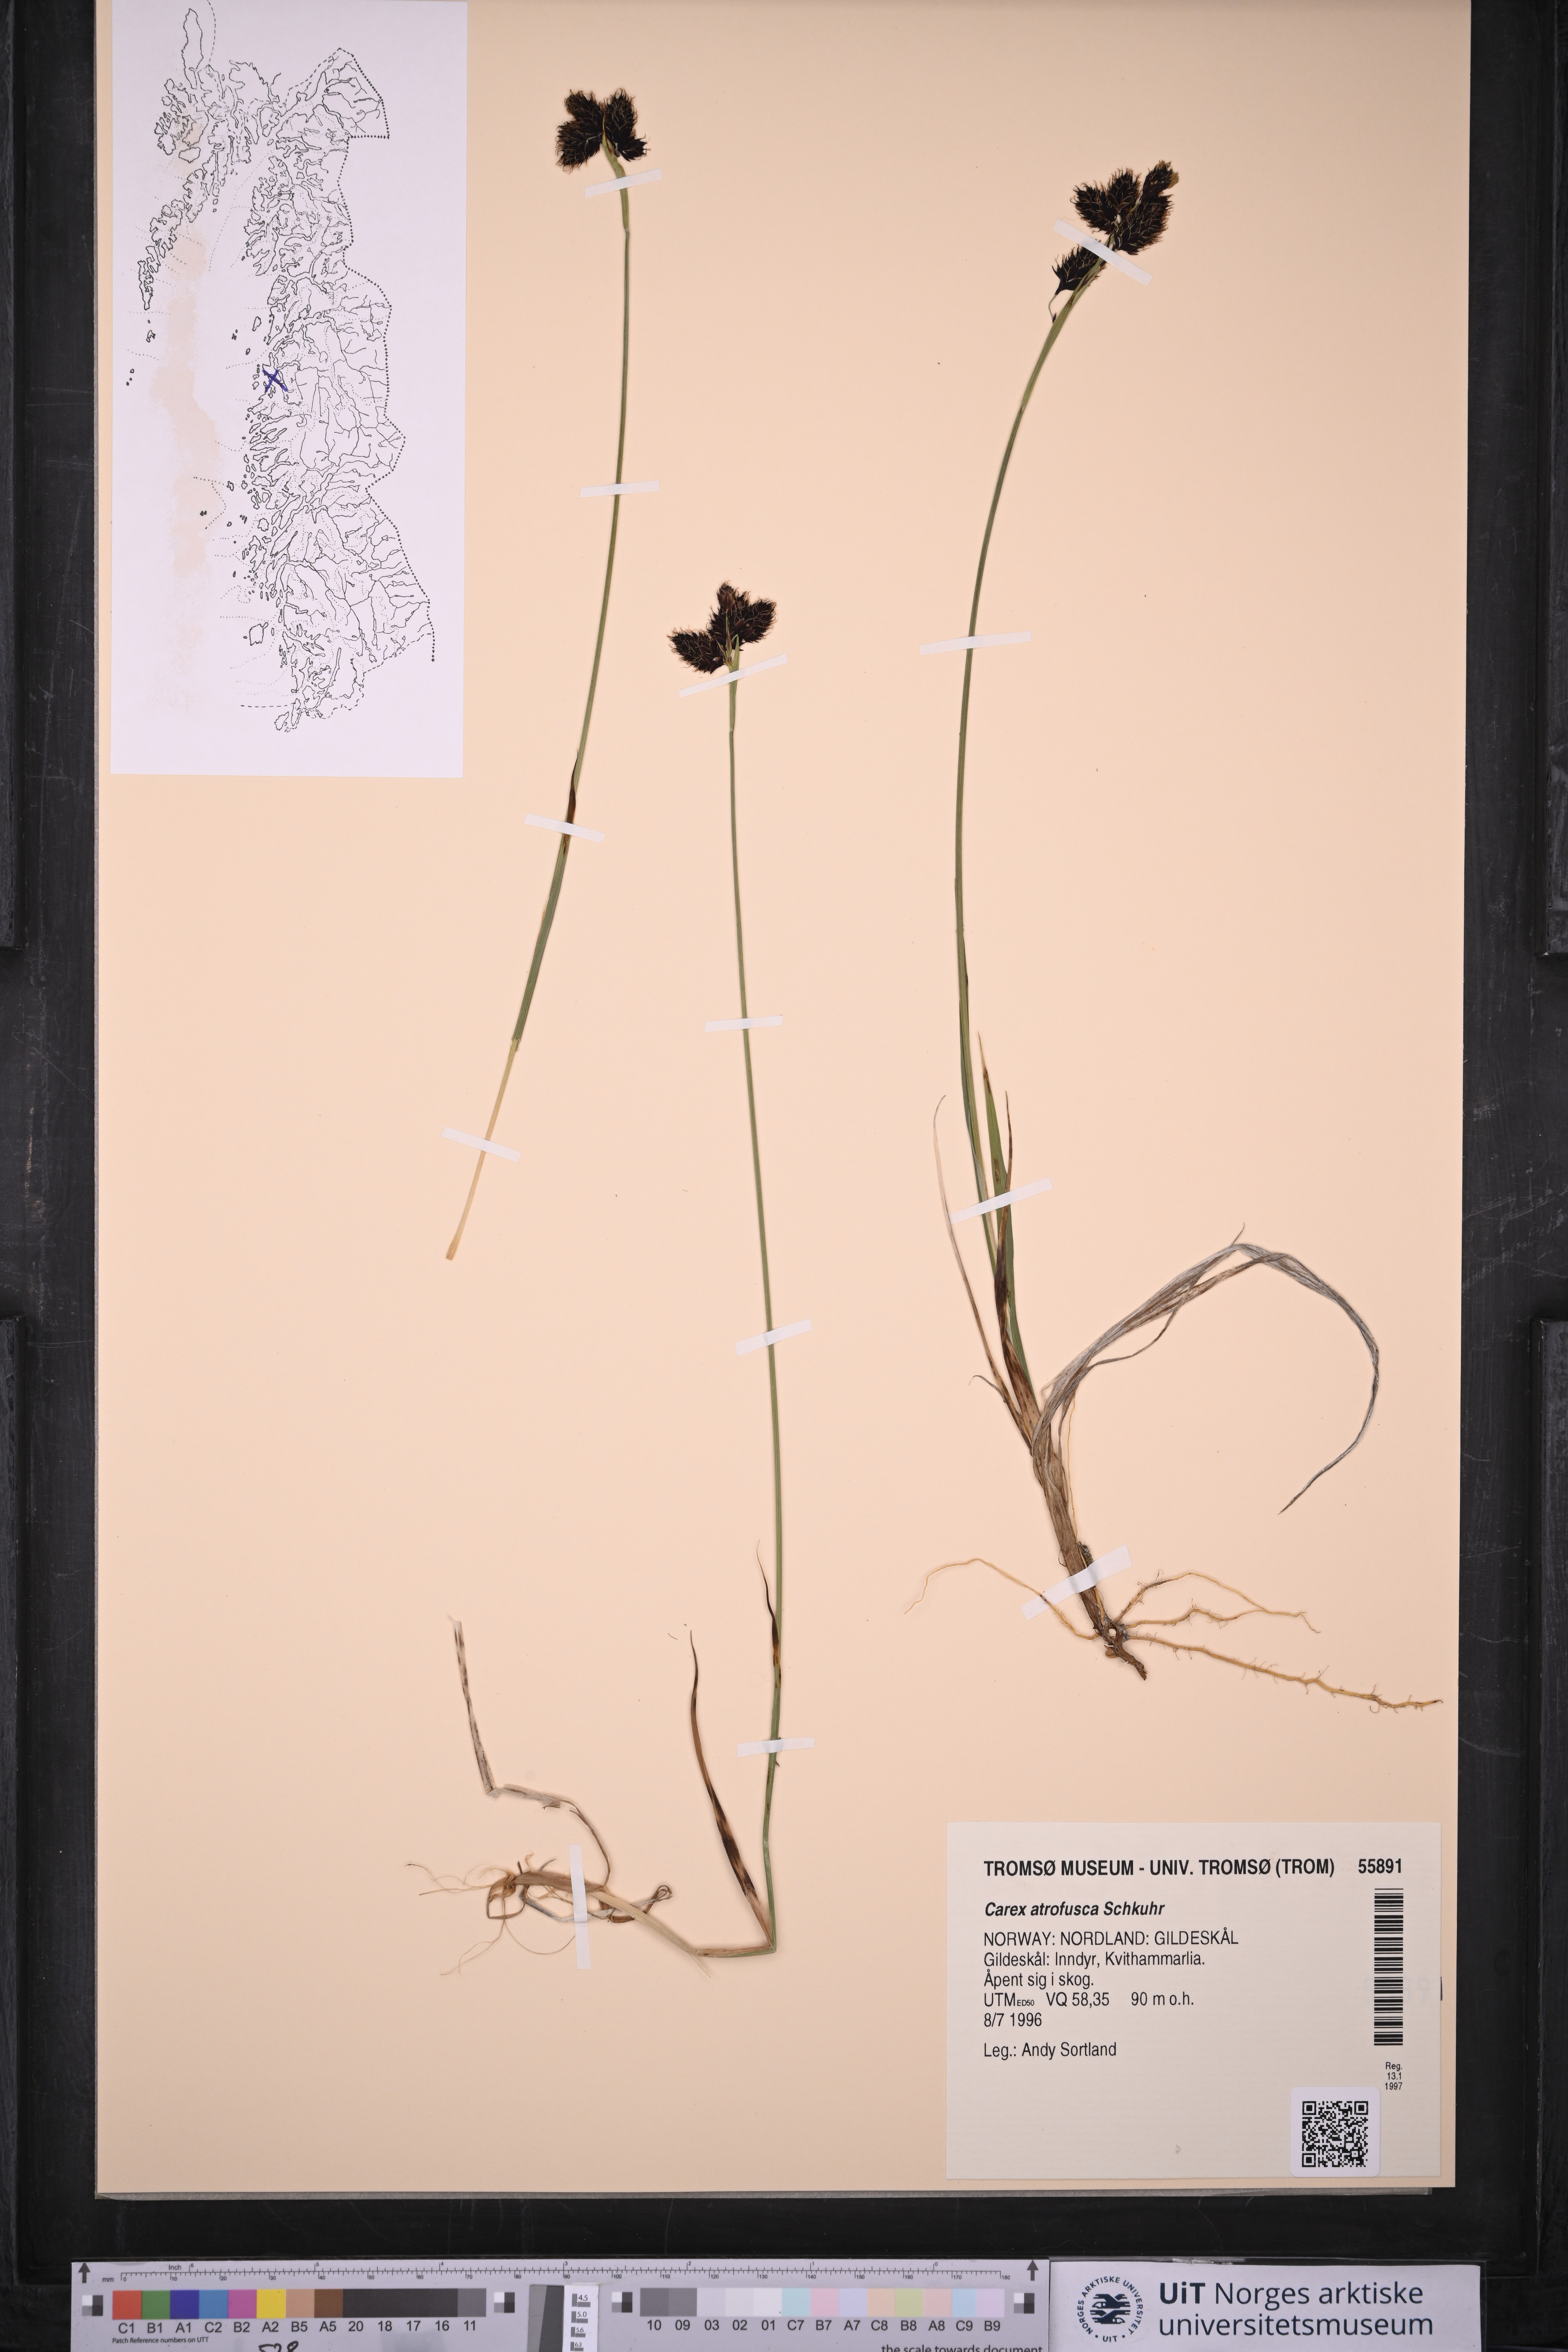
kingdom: Plantae
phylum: Tracheophyta
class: Liliopsida
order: Poales
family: Cyperaceae
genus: Carex
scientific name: Carex atrofusca
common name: Scorched alpine-sedge
